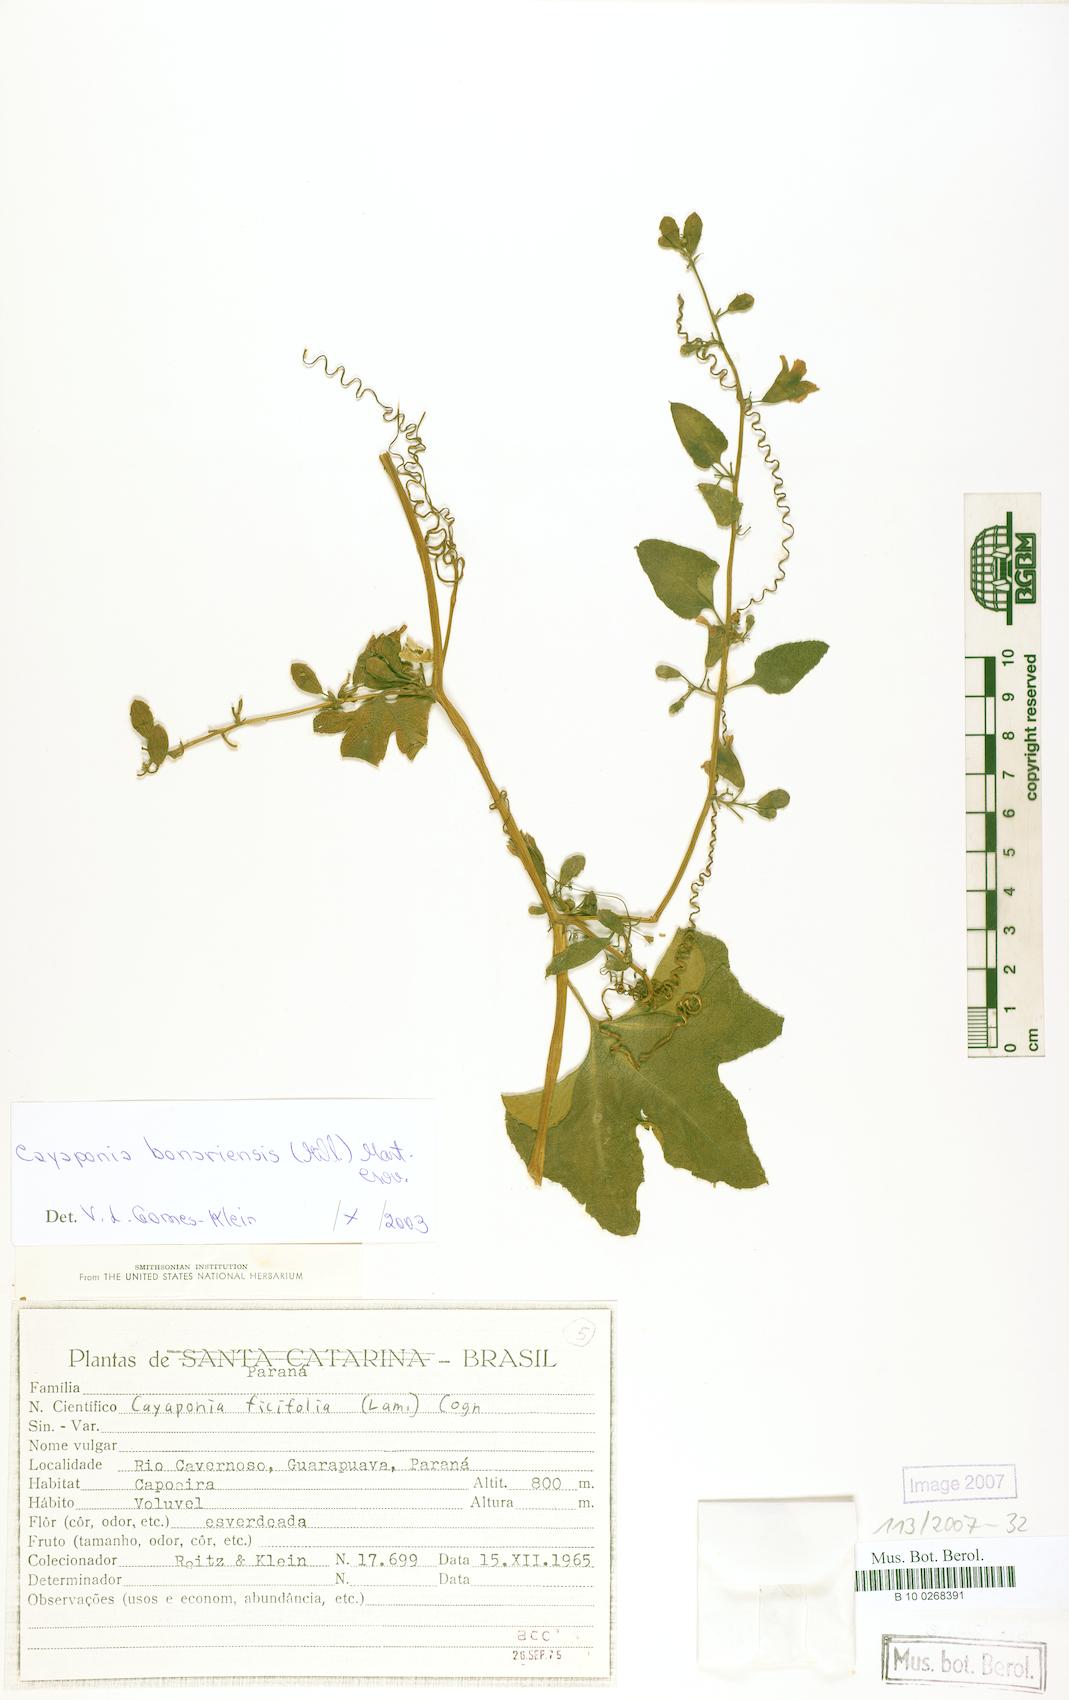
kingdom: Plantae
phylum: Tracheophyta
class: Magnoliopsida
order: Cucurbitales
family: Cucurbitaceae
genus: Cayaponia
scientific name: Cayaponia bonariensis
